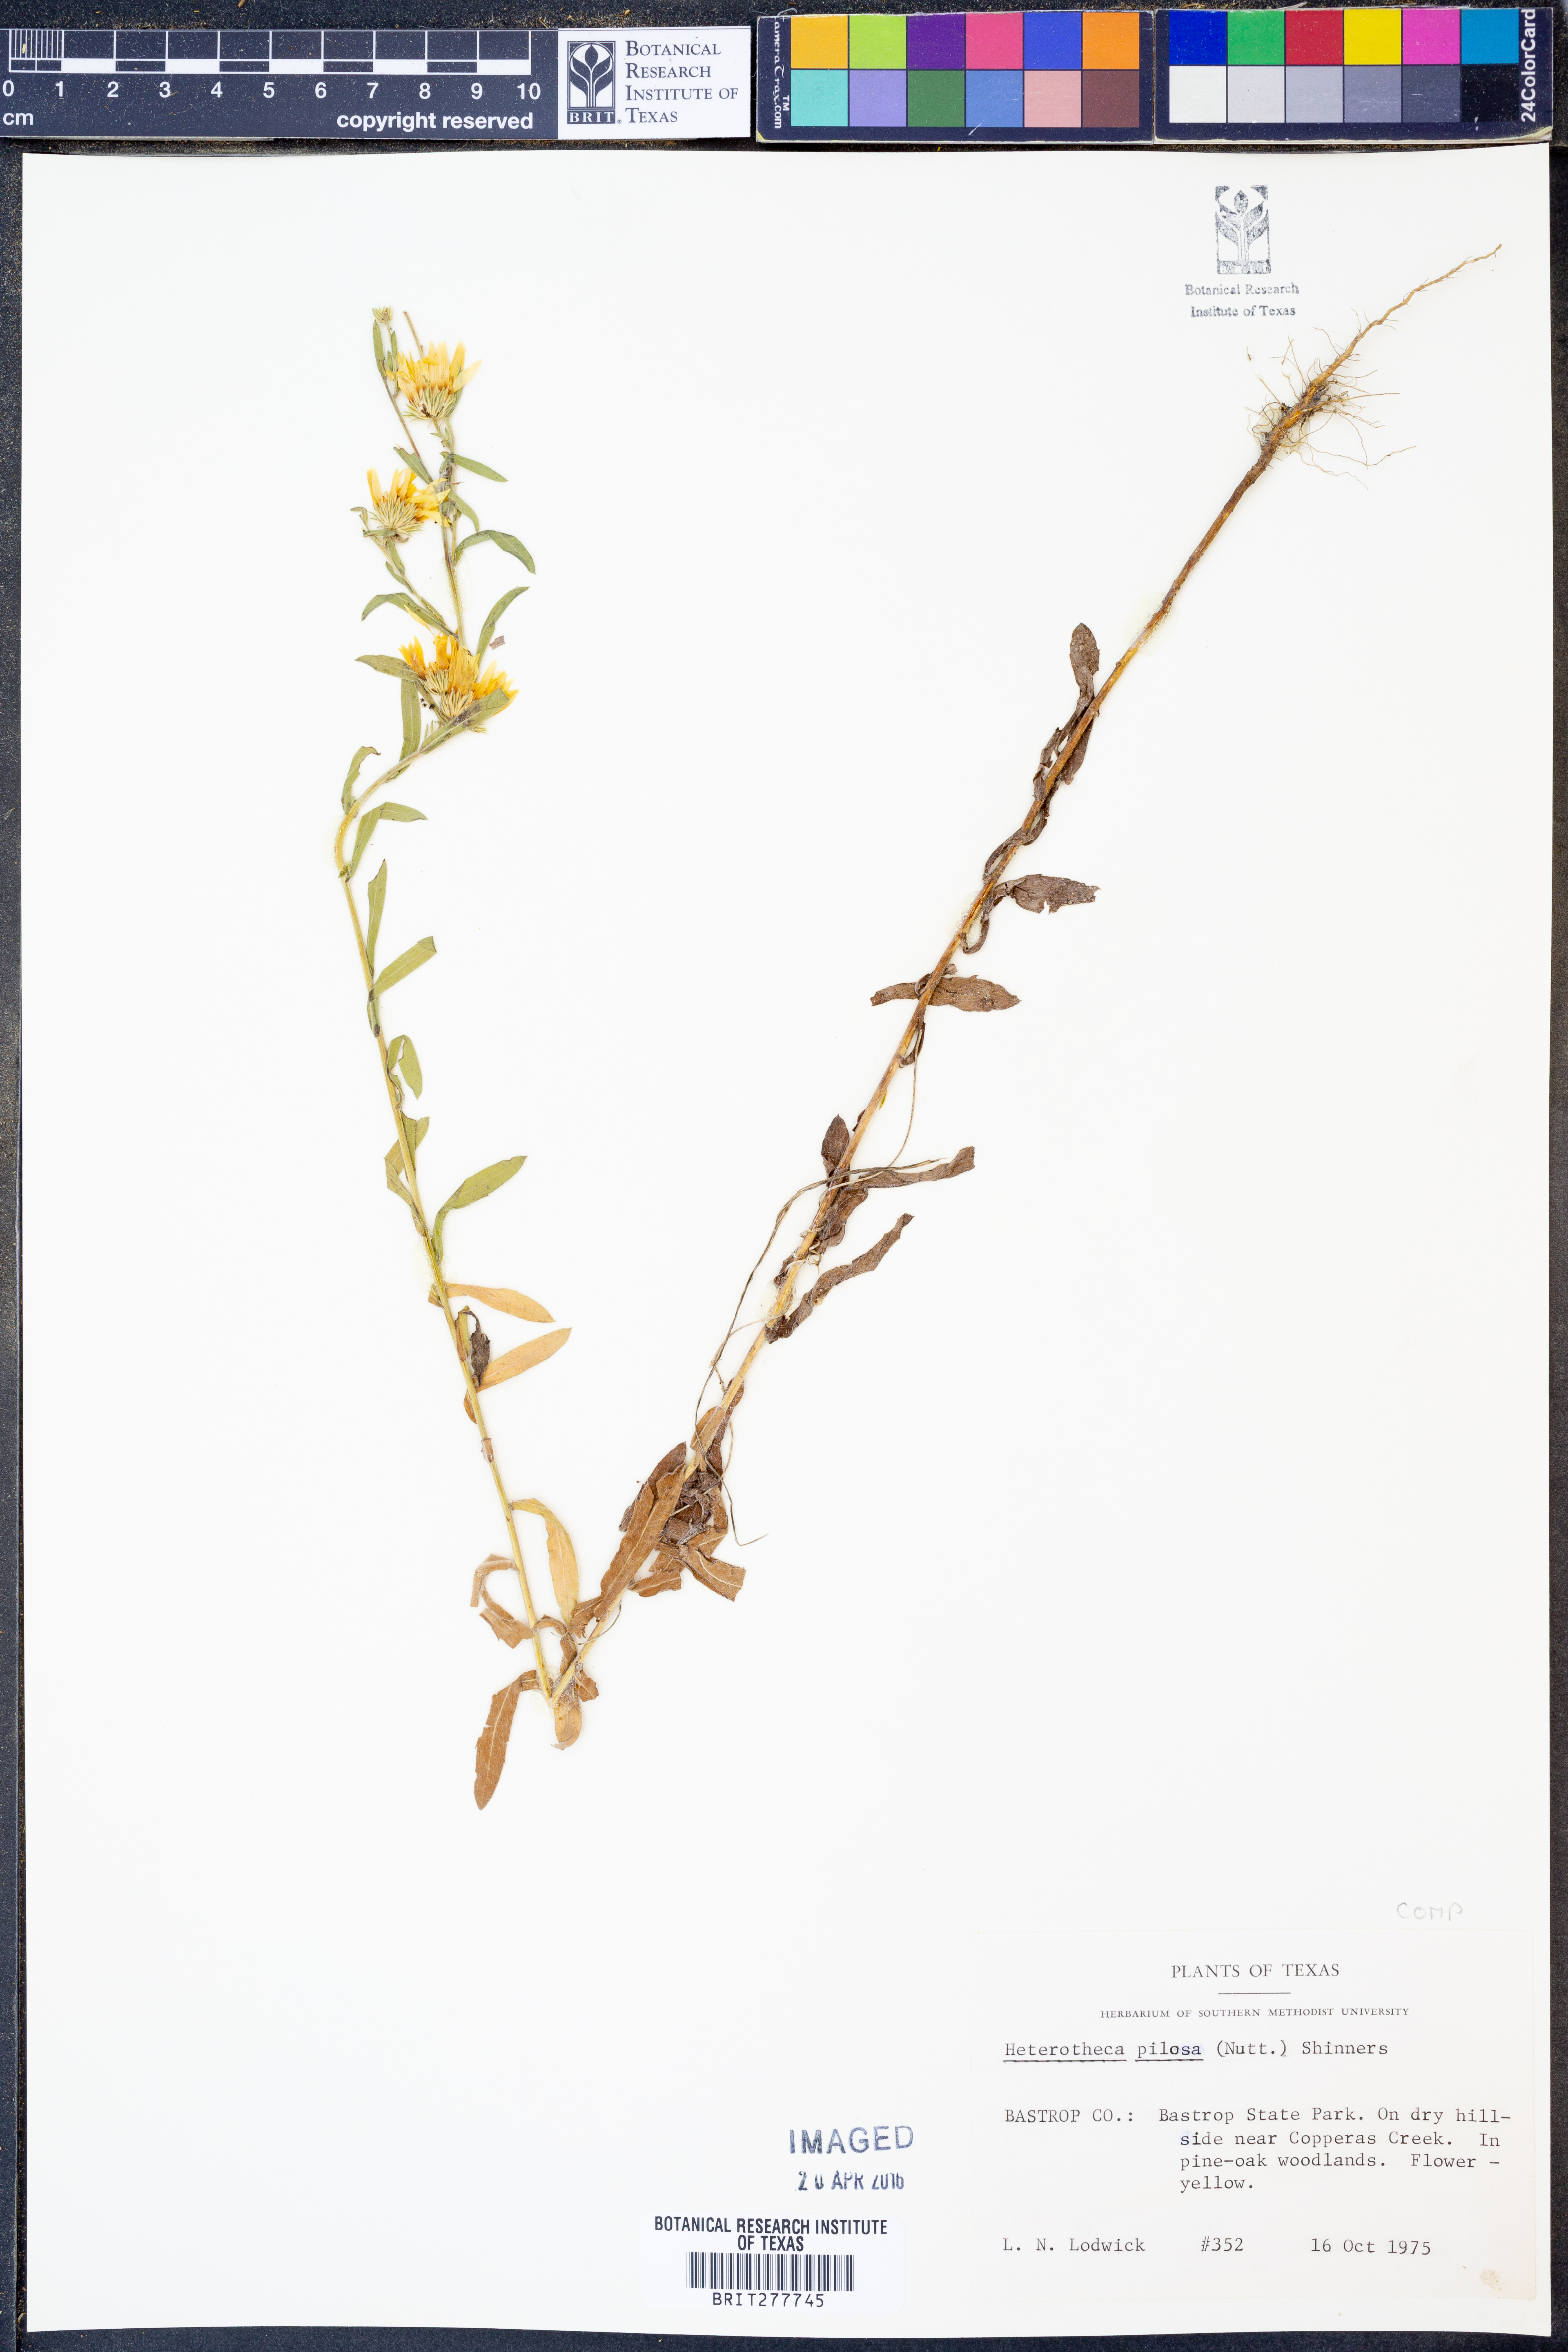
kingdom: Plantae
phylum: Tracheophyta
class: Magnoliopsida
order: Asterales
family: Asteraceae
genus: Bradburia
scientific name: Bradburia pilosa
